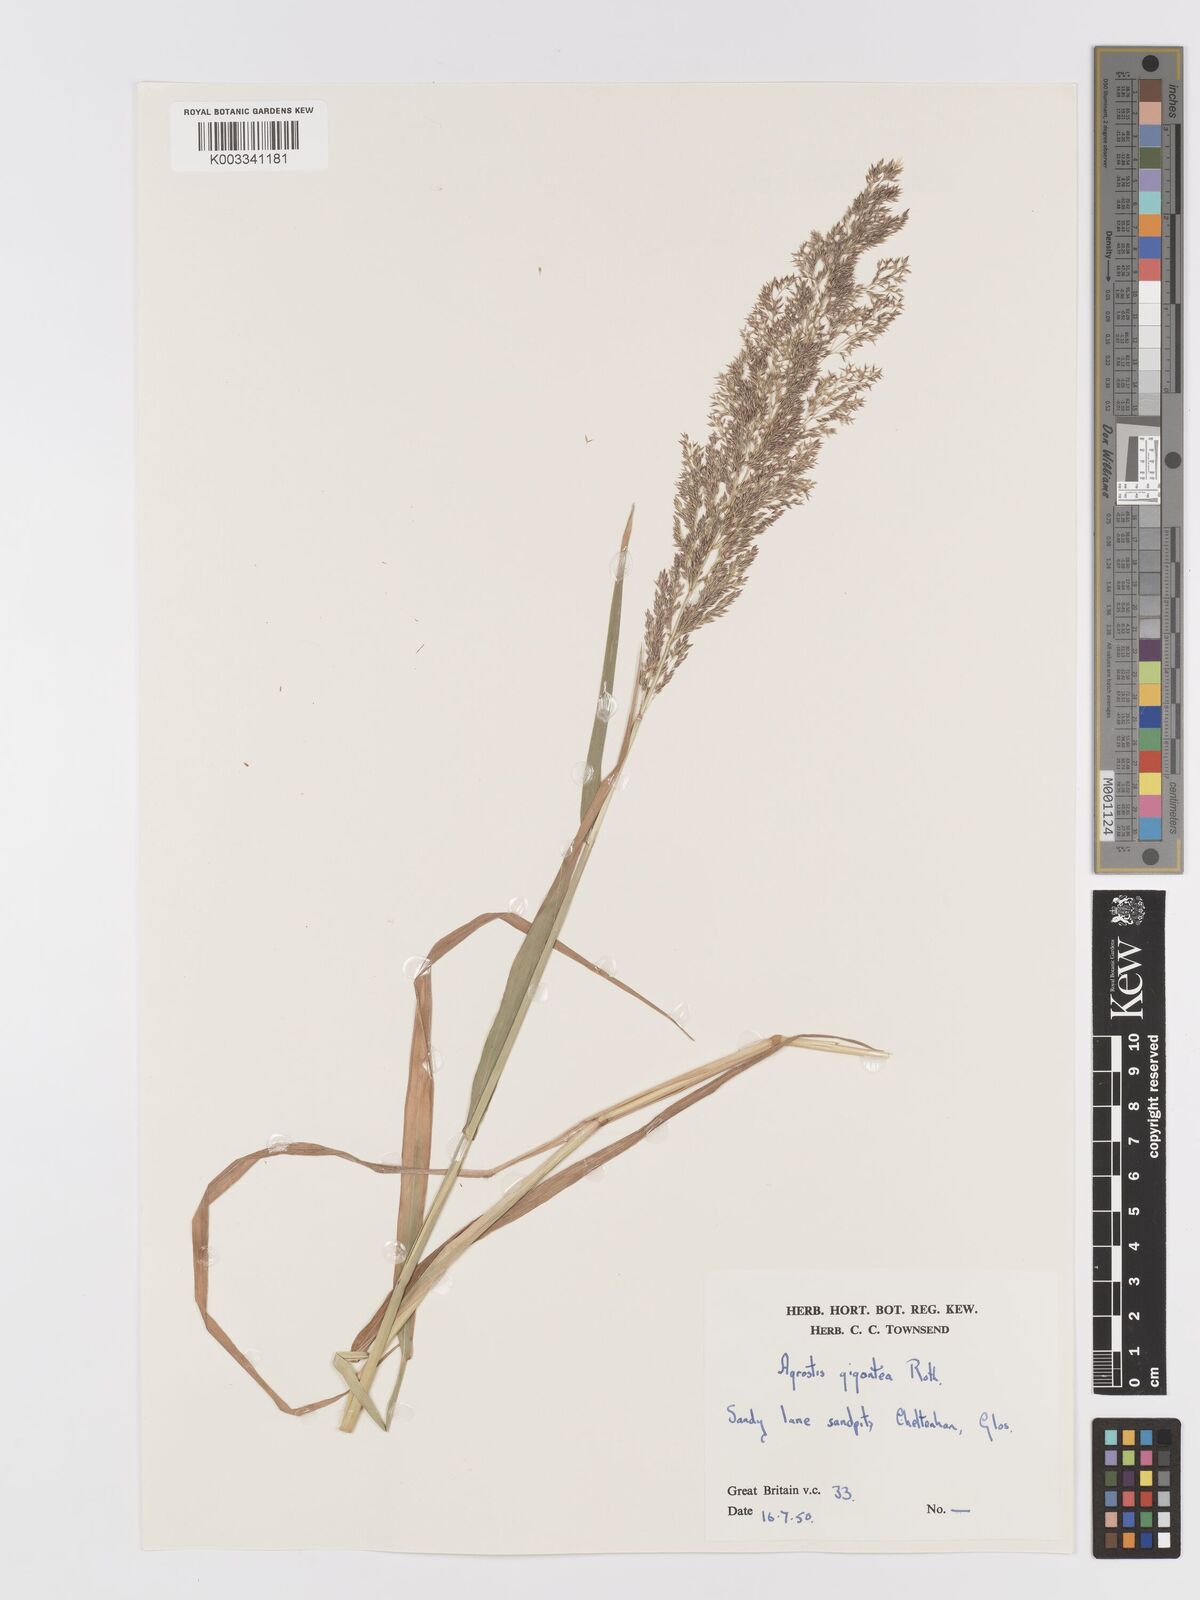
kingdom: Plantae
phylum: Tracheophyta
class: Liliopsida
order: Poales
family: Poaceae
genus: Agrostis
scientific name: Agrostis gigantea
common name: Black bent
